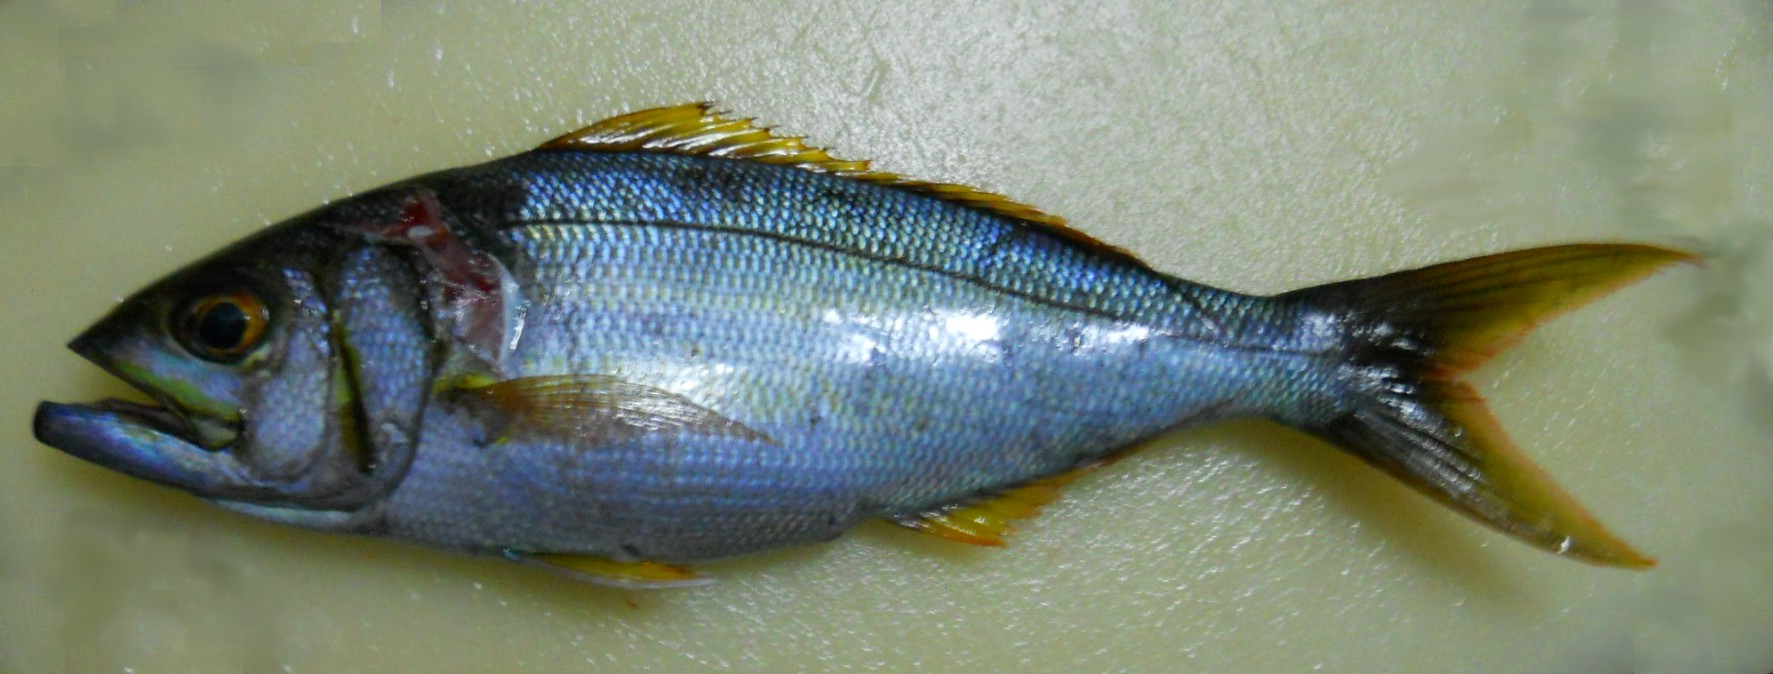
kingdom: Animalia
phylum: Chordata
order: Perciformes
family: Lutjanidae
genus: Aphareus
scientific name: Aphareus furca
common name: Smalltooth jobfish
